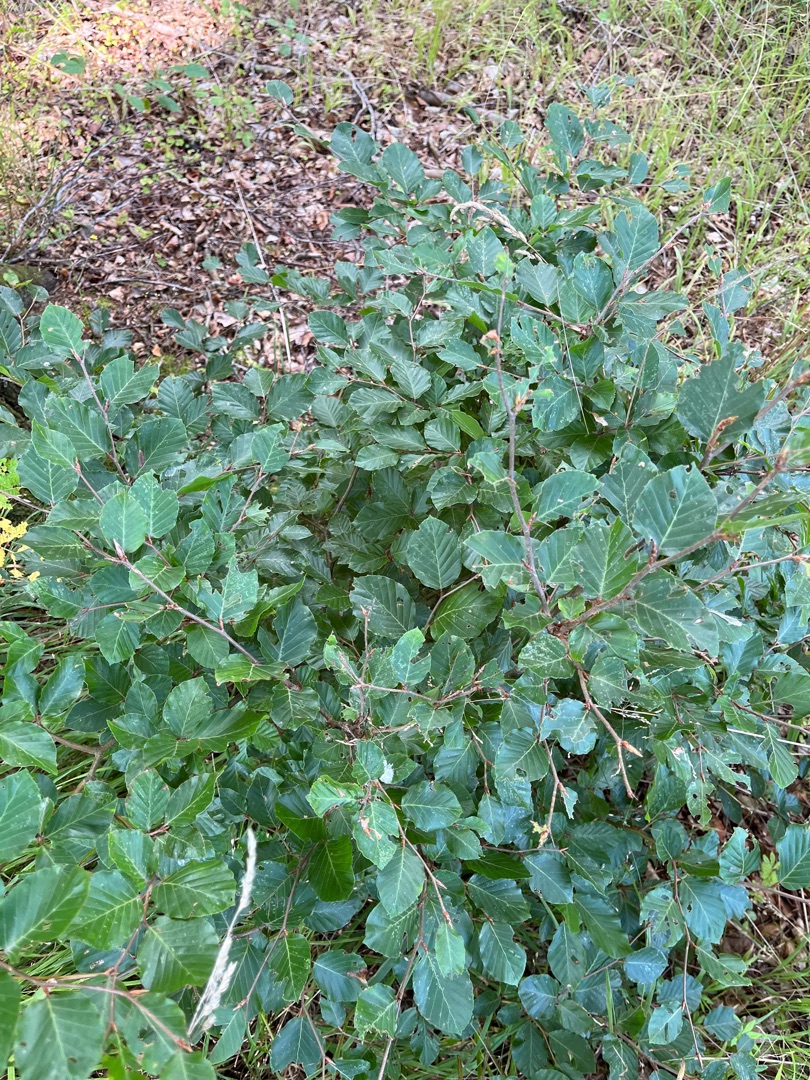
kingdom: Plantae
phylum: Tracheophyta
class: Magnoliopsida
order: Fagales
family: Fagaceae
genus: Fagus
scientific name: Fagus sylvatica
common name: Bøg
